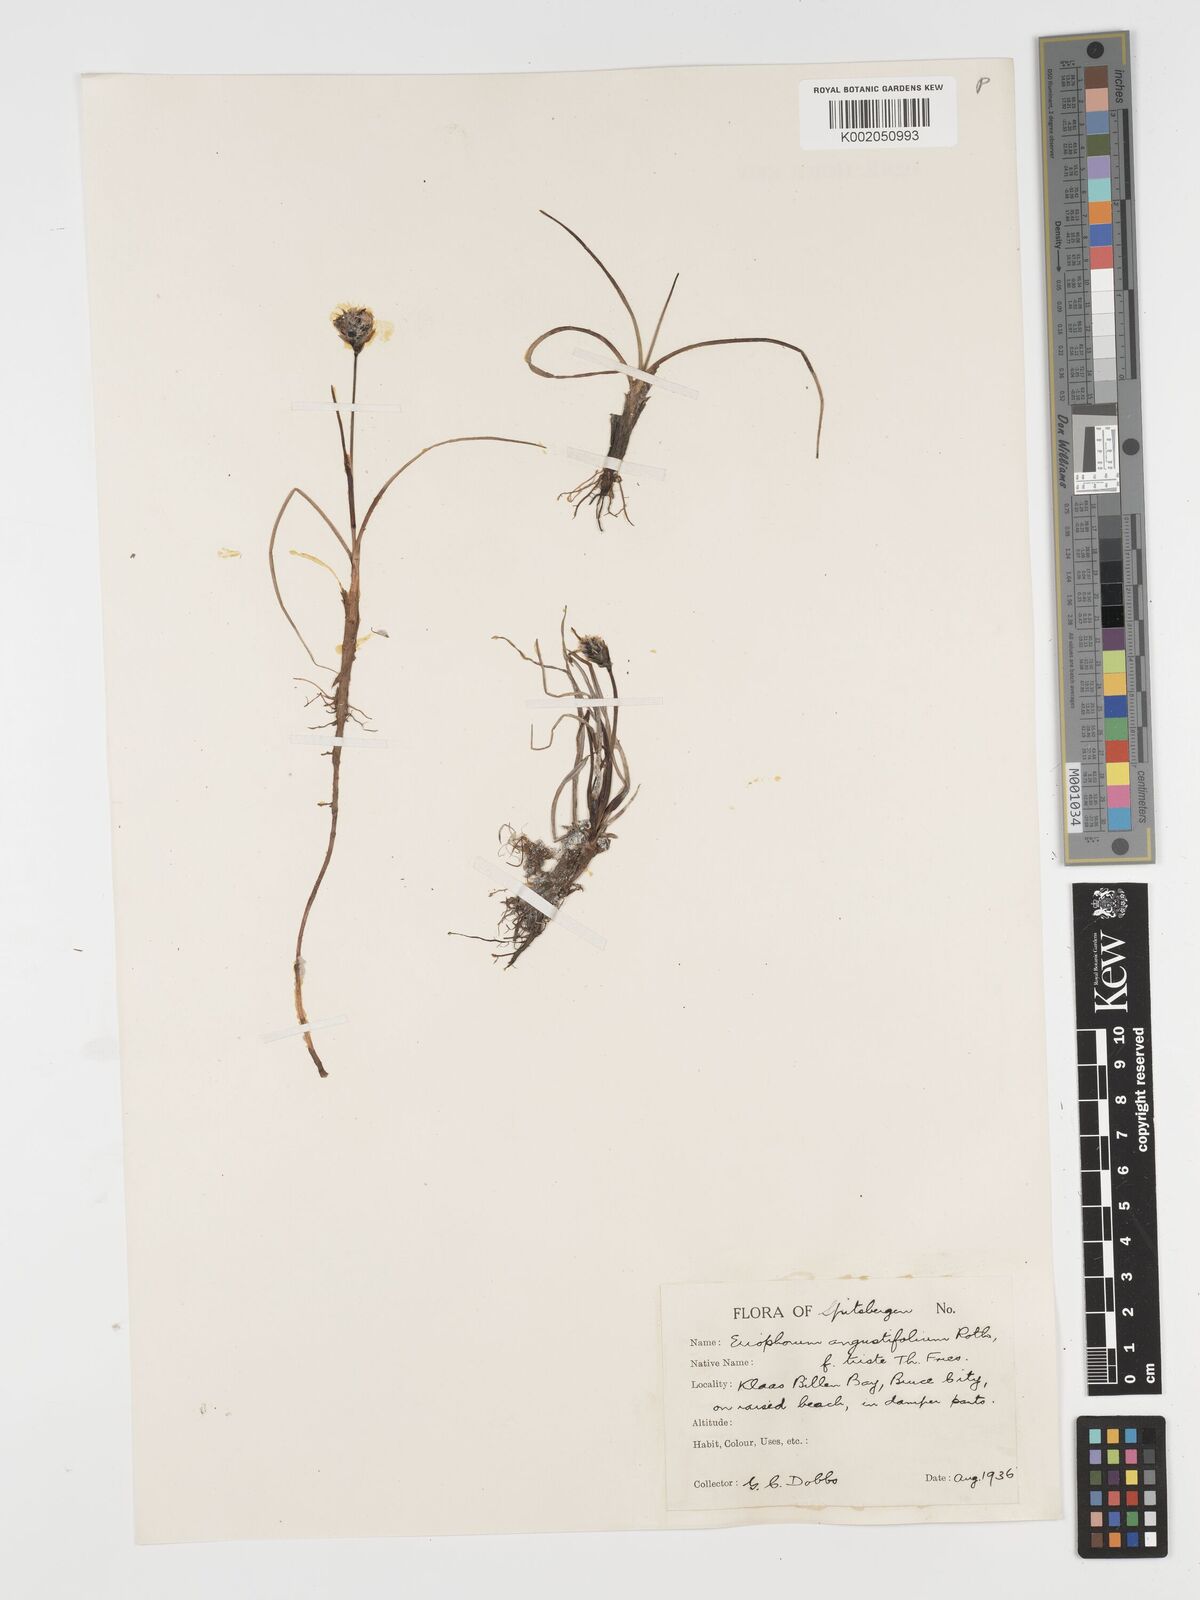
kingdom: Plantae
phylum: Tracheophyta
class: Liliopsida
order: Poales
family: Cyperaceae
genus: Eriophorum
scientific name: Eriophorum angustifolium
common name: Common cottongrass
